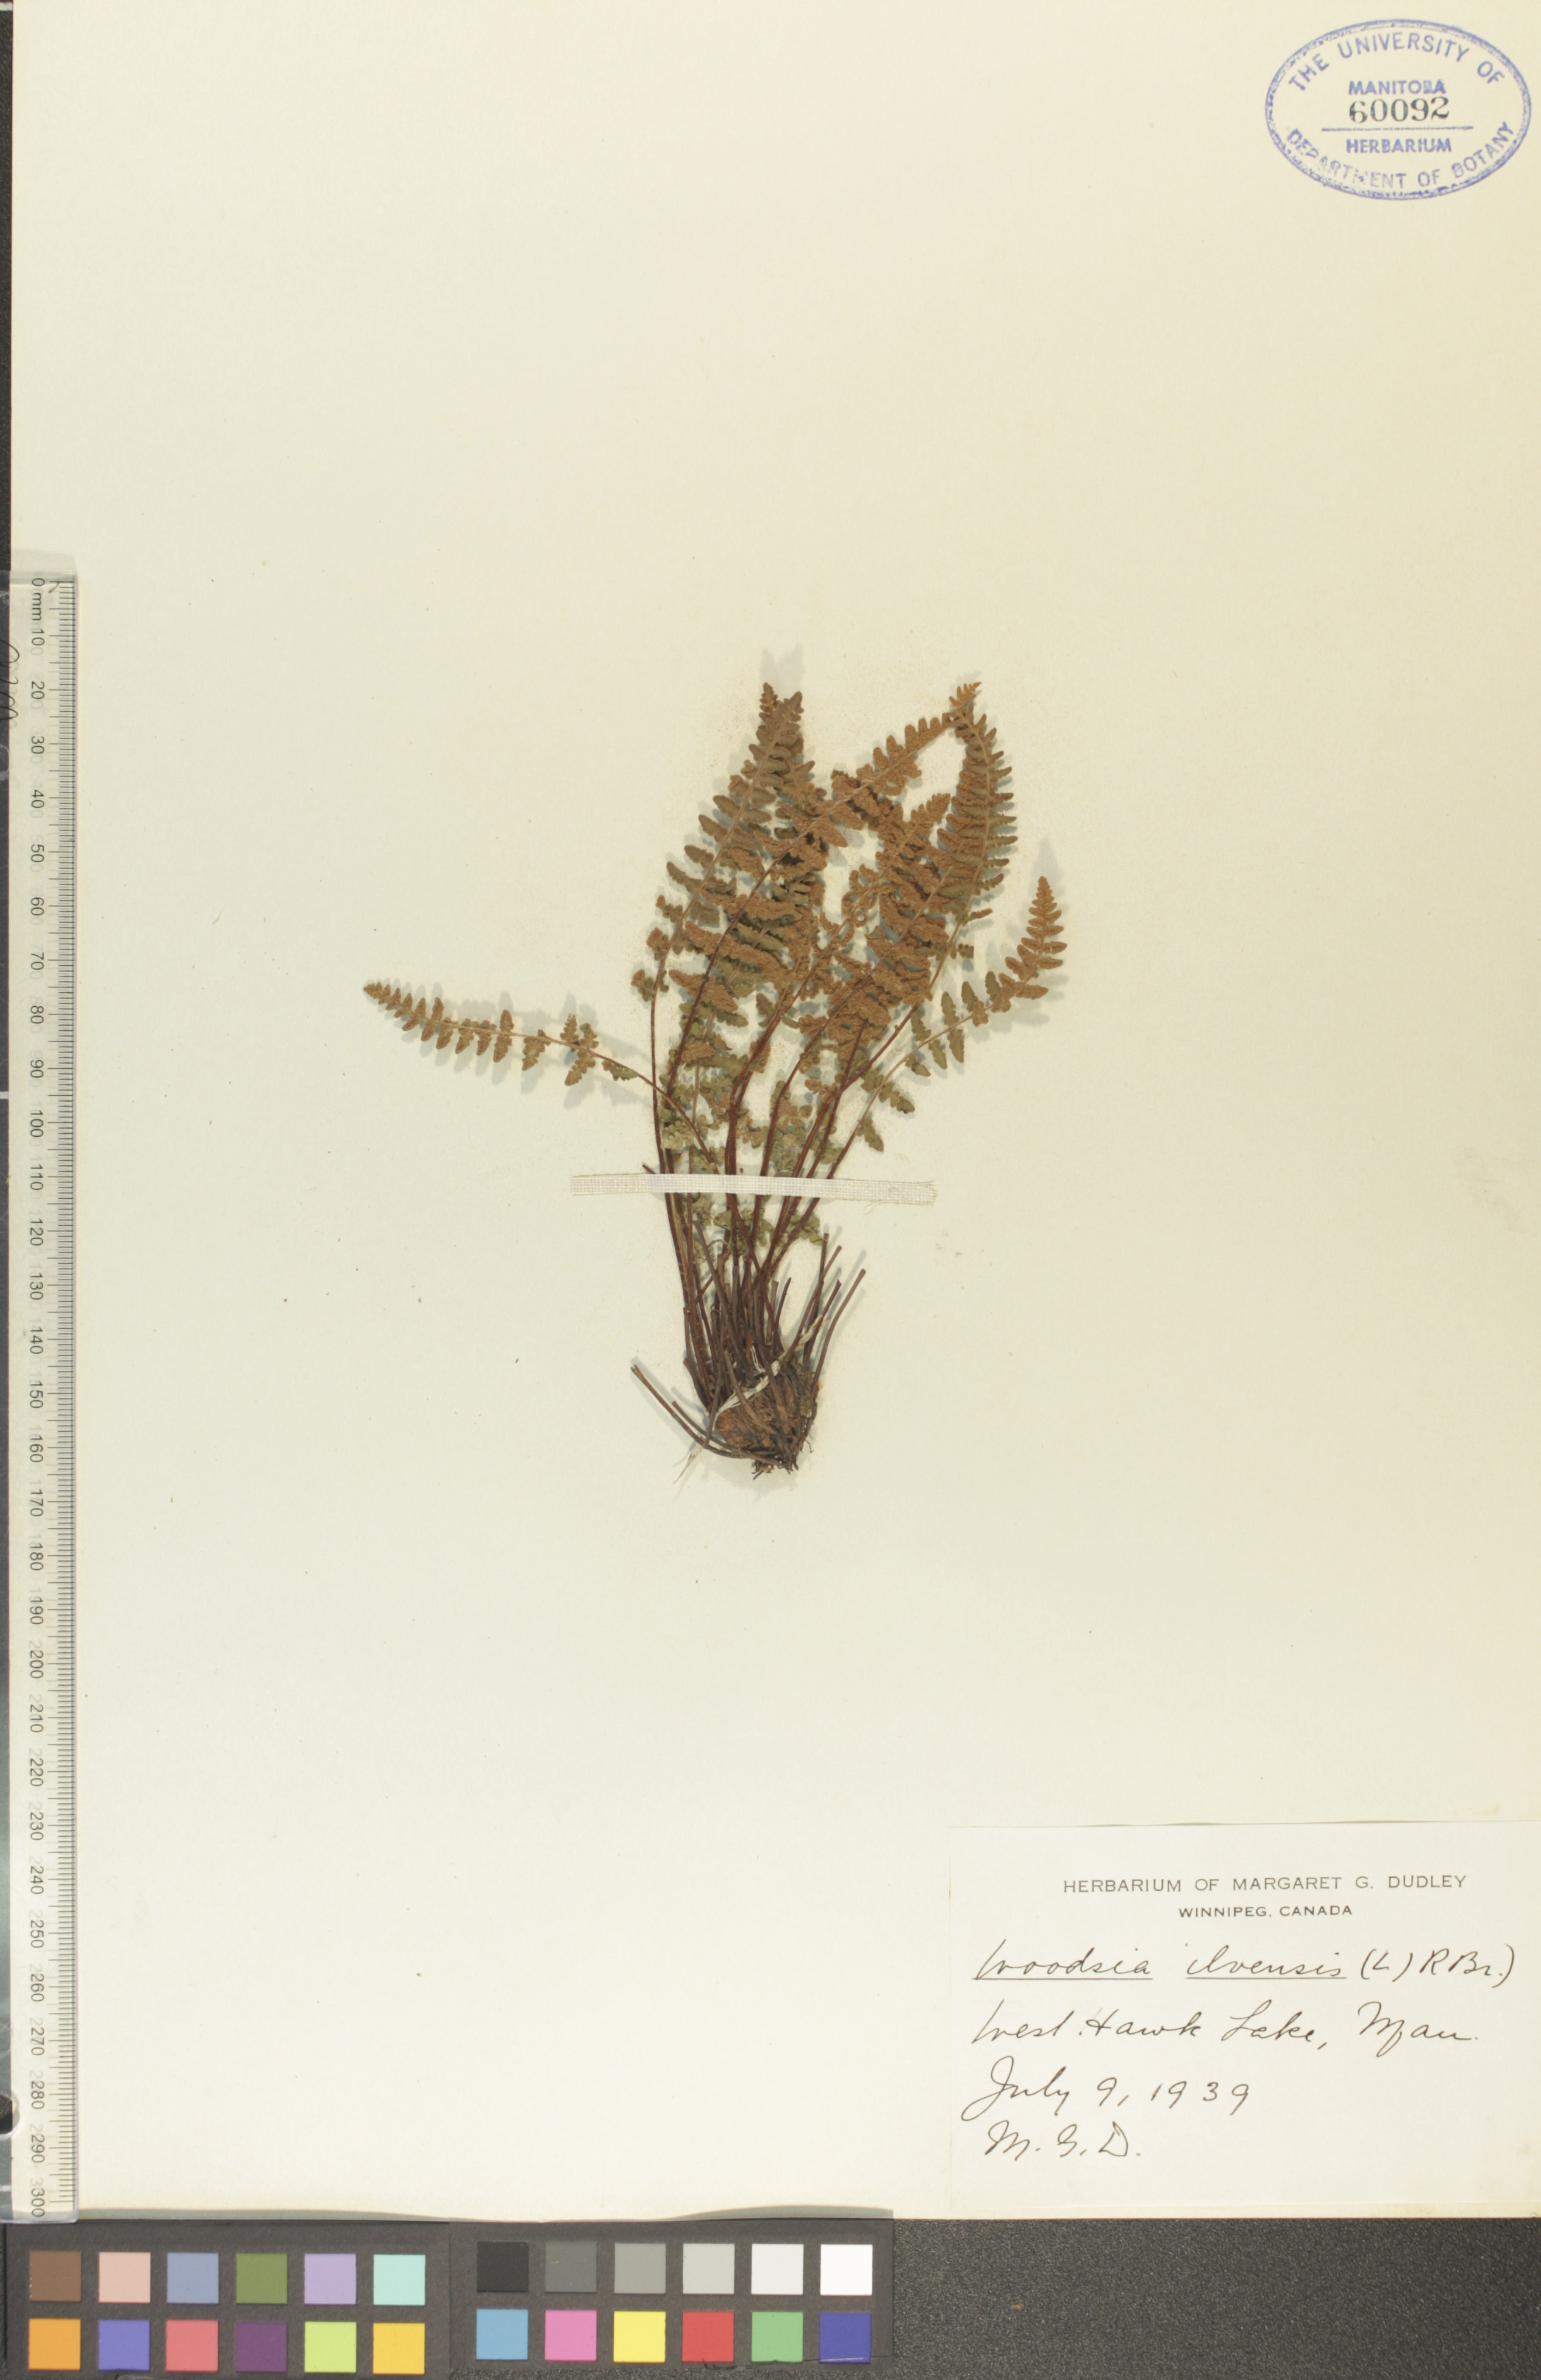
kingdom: Plantae
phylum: Tracheophyta
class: Polypodiopsida
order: Polypodiales
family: Woodsiaceae
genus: Woodsia
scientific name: Woodsia ilvensis
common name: Fragrant woodsia
